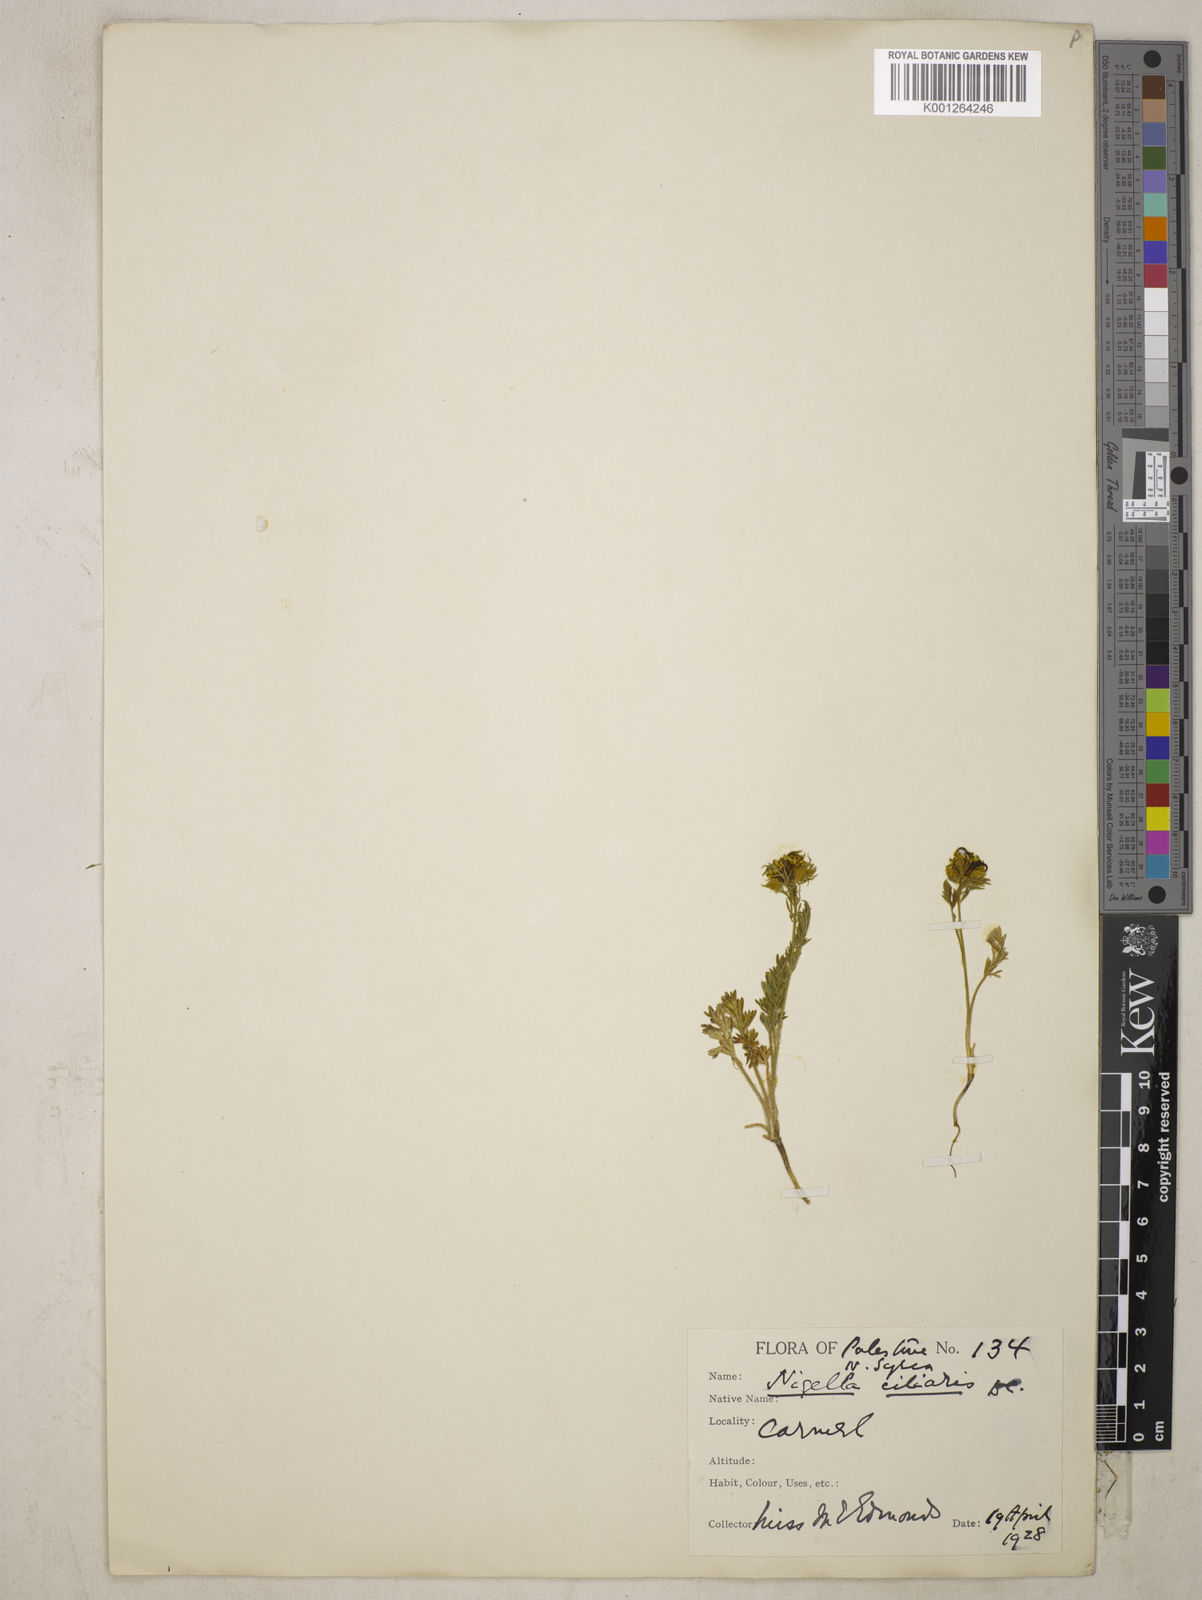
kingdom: Plantae
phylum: Tracheophyta
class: Magnoliopsida
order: Ranunculales
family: Ranunculaceae
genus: Nigella
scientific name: Nigella ciliaris
